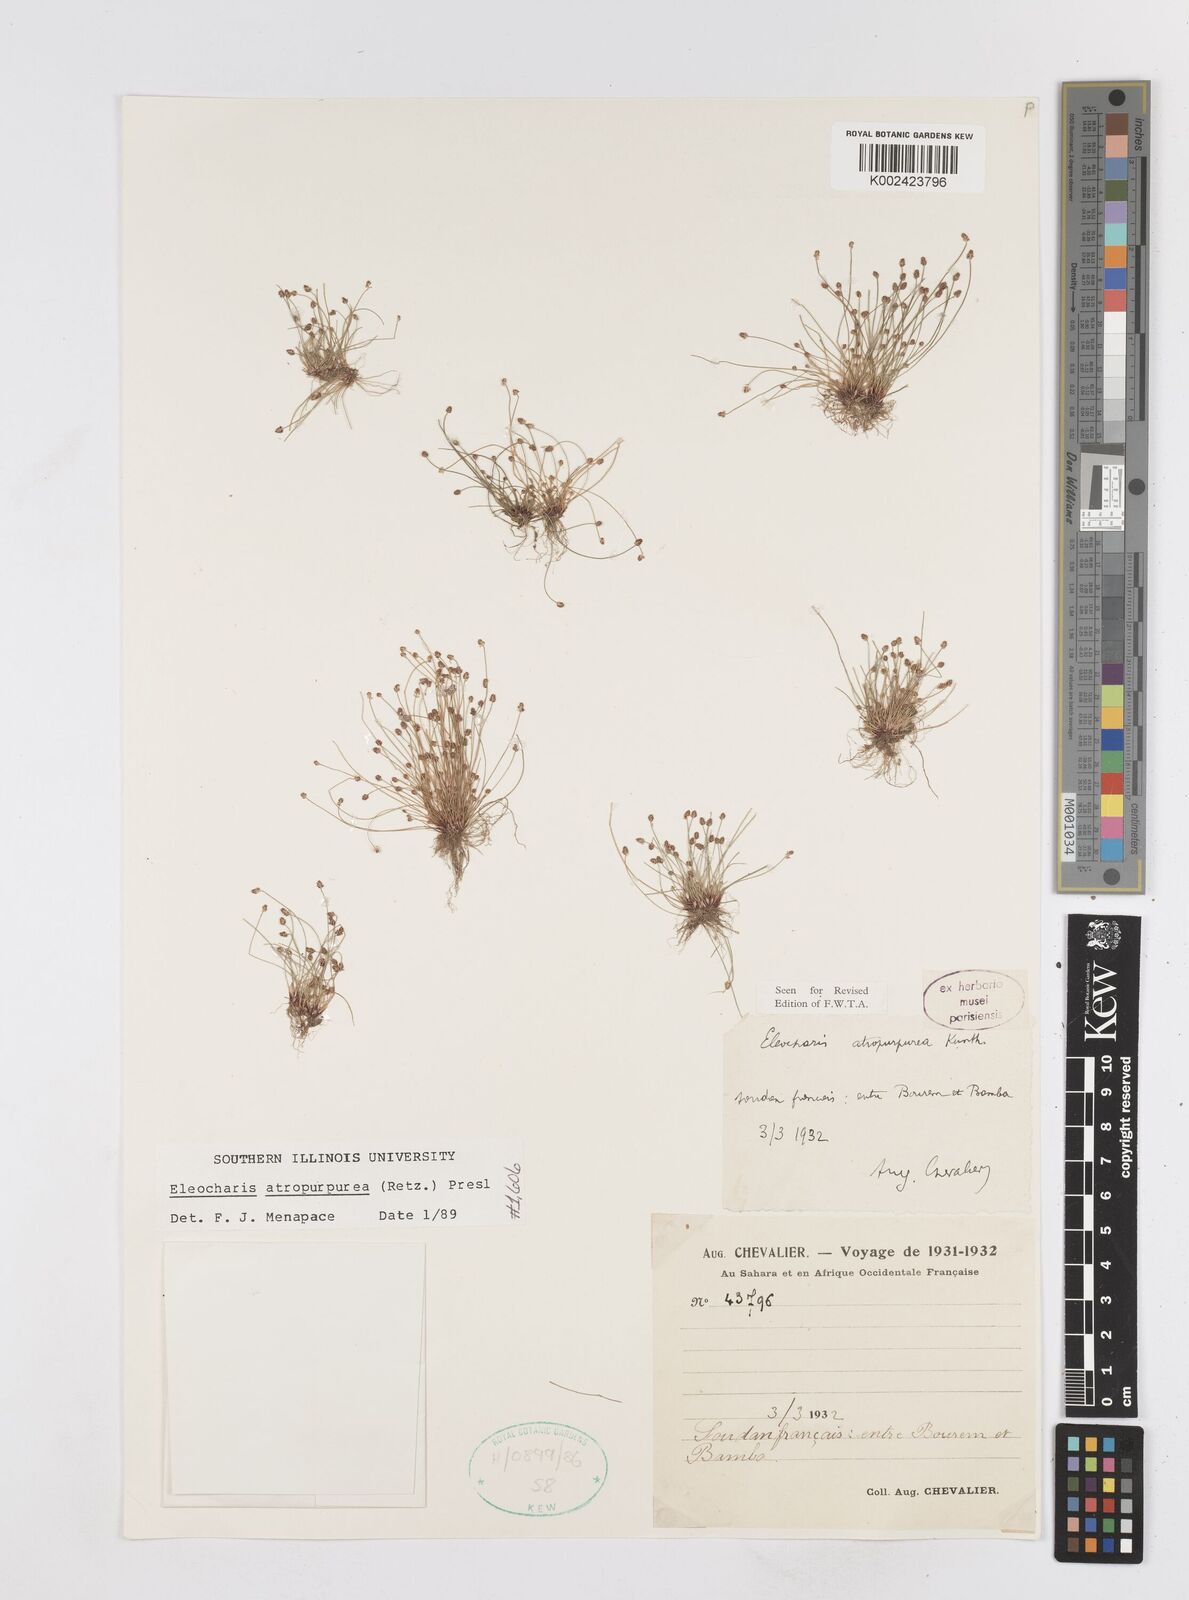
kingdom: Plantae
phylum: Tracheophyta
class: Liliopsida
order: Poales
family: Cyperaceae
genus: Eleocharis
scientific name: Eleocharis atropurpurea
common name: Purple spikerush
